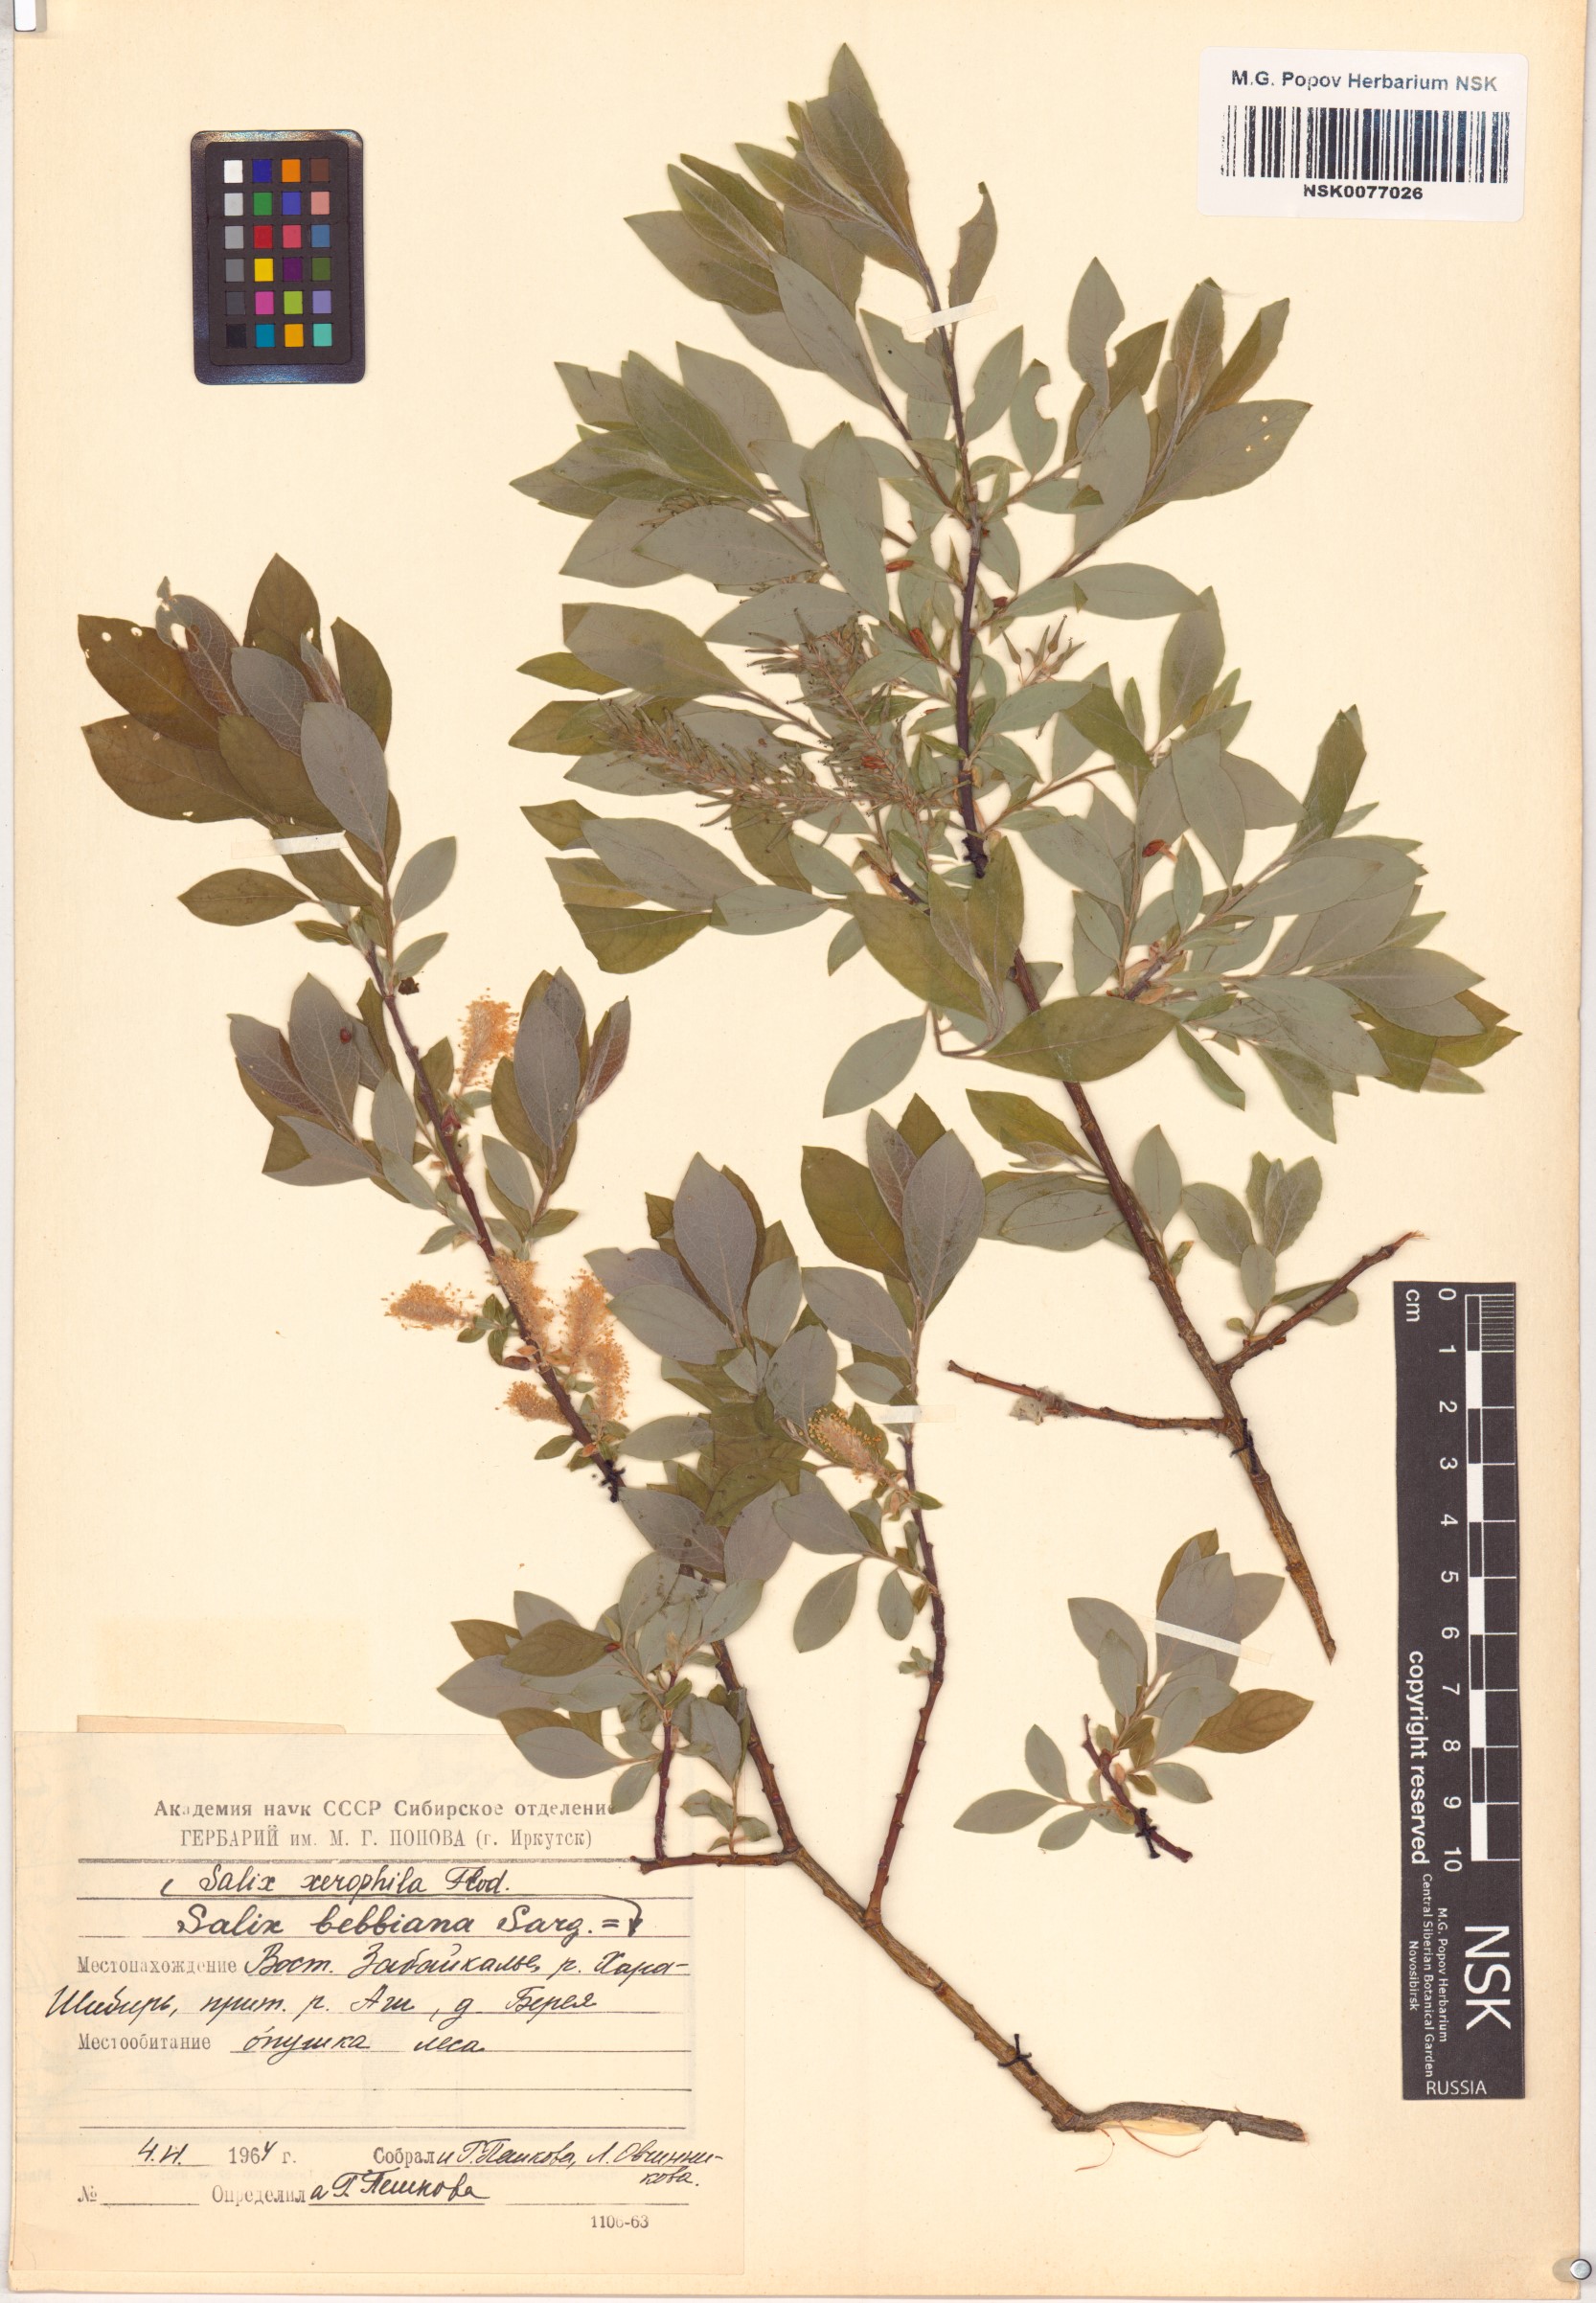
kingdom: Plantae
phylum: Tracheophyta
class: Magnoliopsida
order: Malpighiales
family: Salicaceae
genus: Salix
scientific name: Salix bebbiana
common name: Bebb's willow
